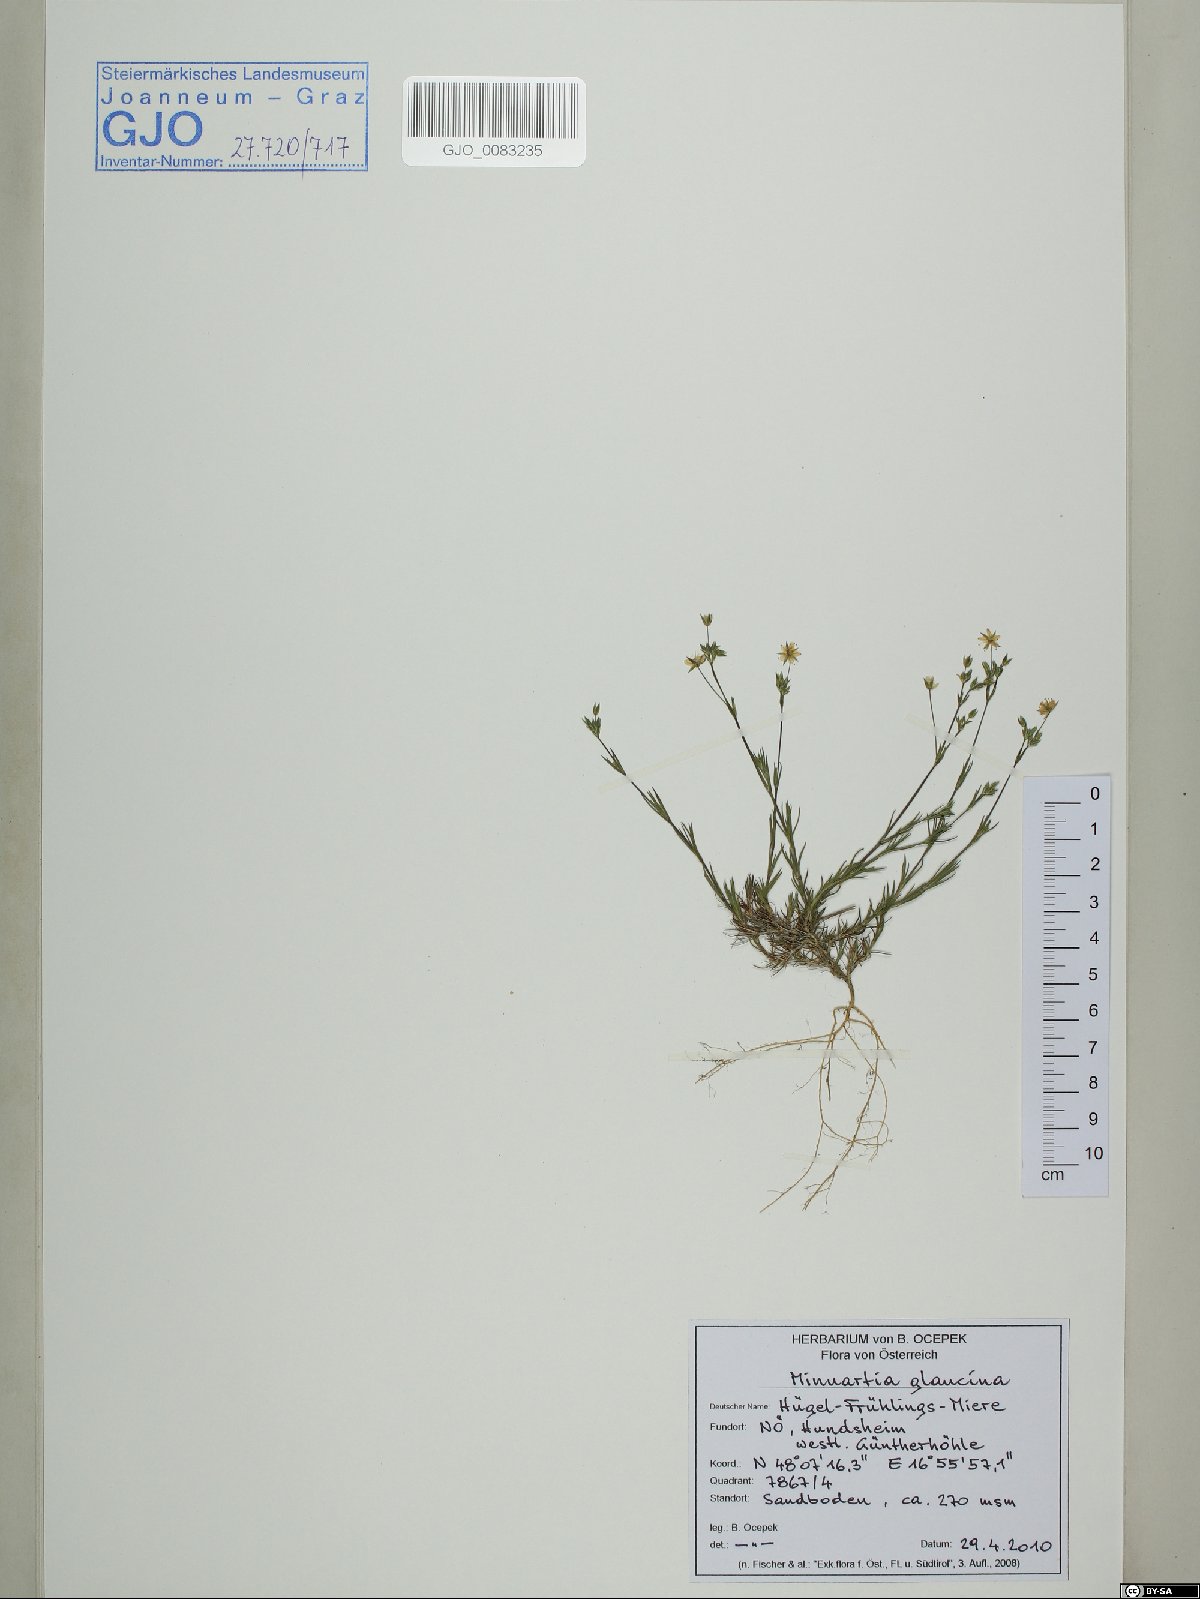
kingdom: Plantae
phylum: Tracheophyta
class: Magnoliopsida
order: Caryophyllales
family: Caryophyllaceae
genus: Sabulina
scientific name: Sabulina glaucina
